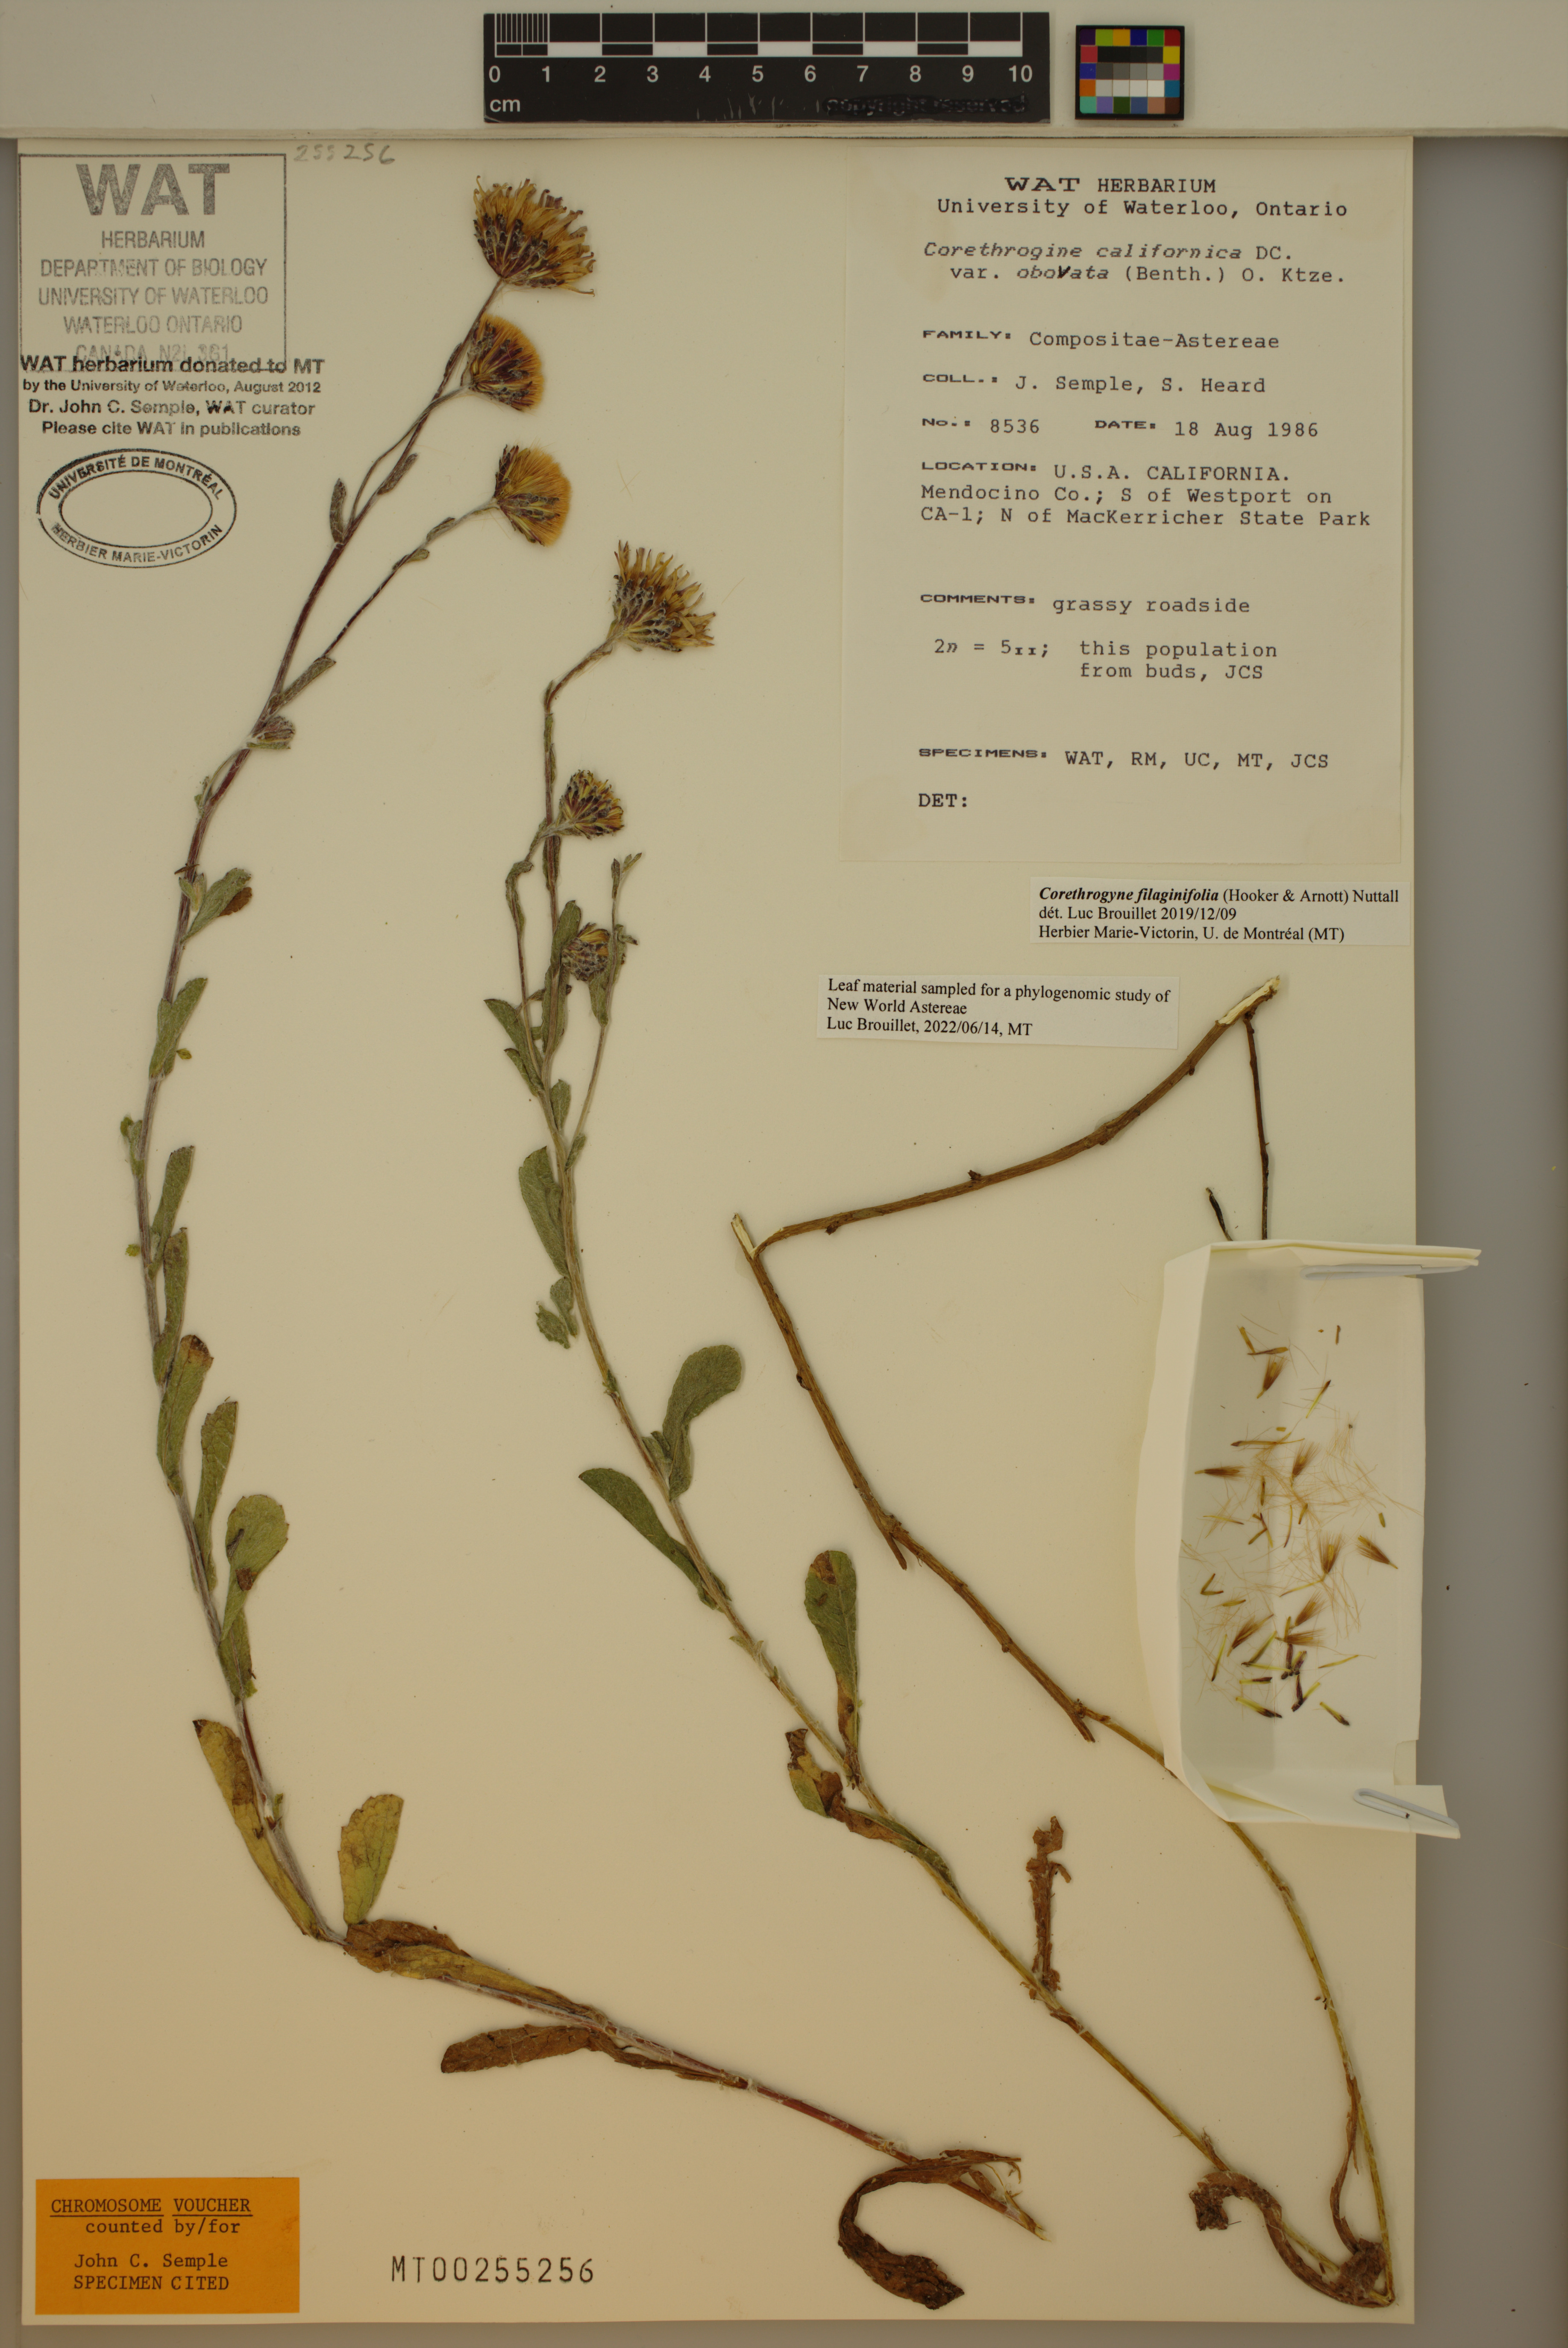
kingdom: Plantae
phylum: Tracheophyta
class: Magnoliopsida
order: Asterales
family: Asteraceae
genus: Corethrogyne
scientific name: Corethrogyne filaginifolia
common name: Sand-aster
